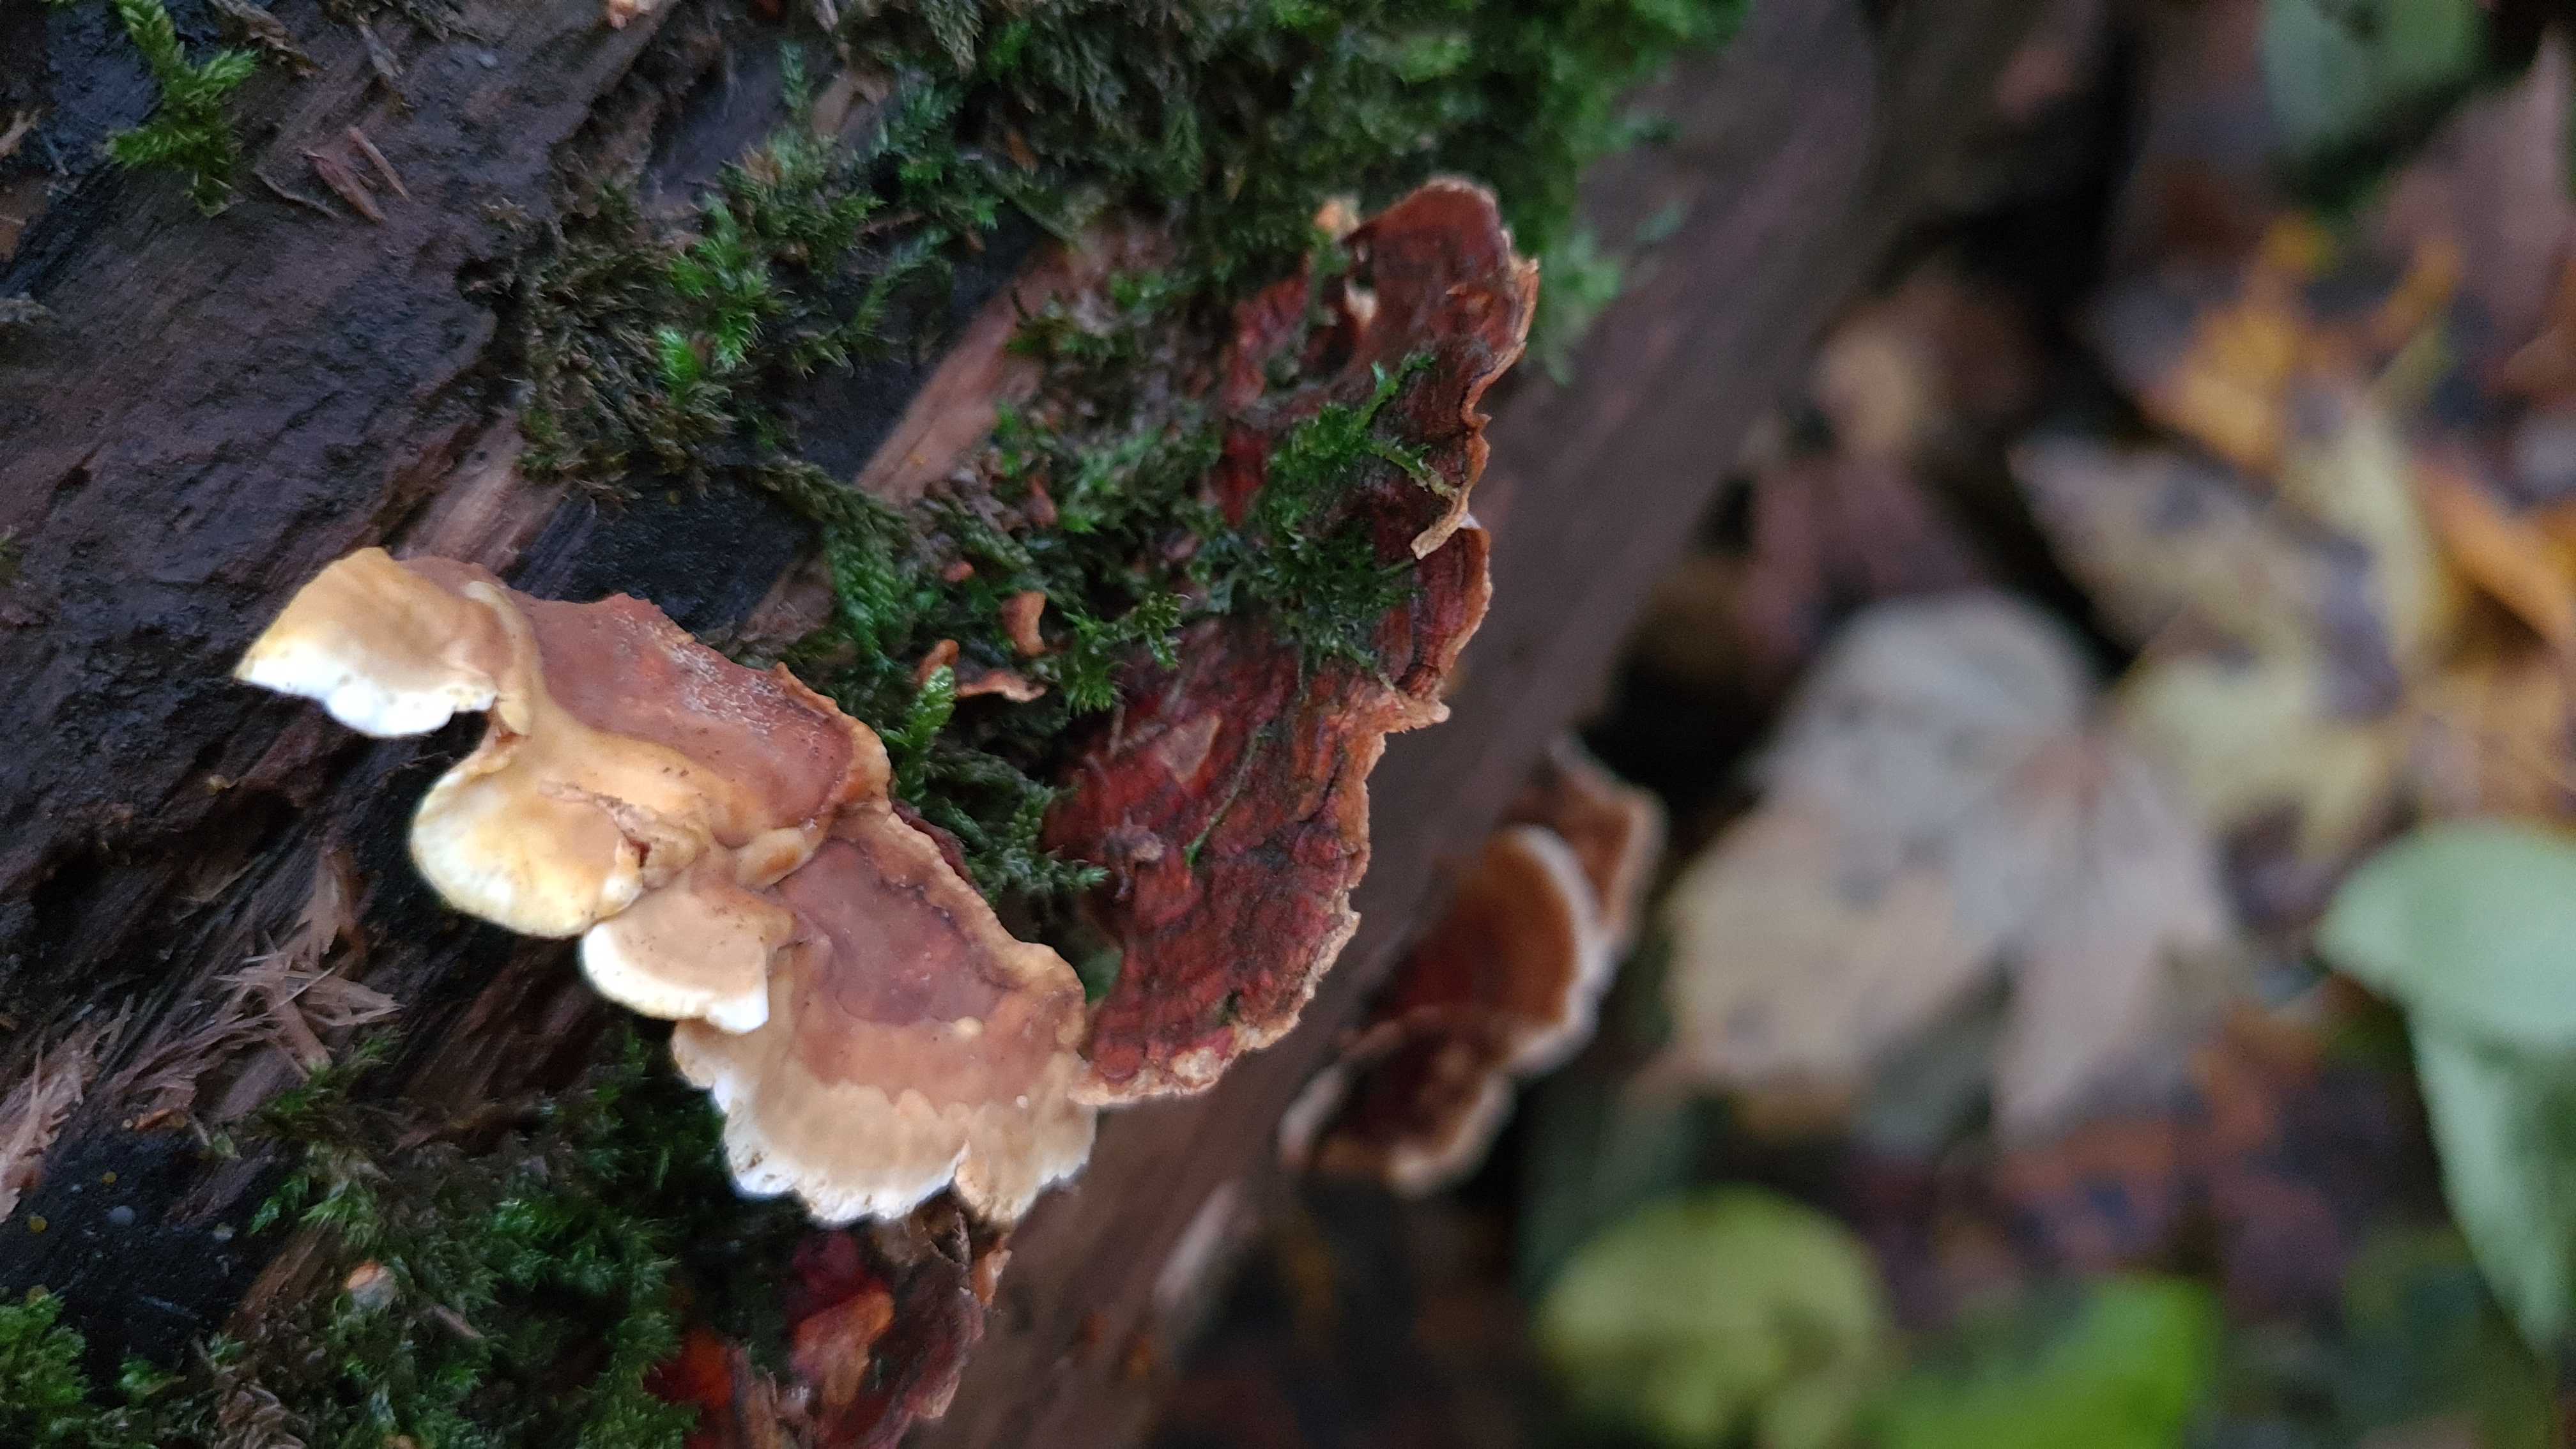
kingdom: Fungi
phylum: Basidiomycota
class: Agaricomycetes
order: Russulales
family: Stereaceae
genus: Stereum
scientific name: Stereum subtomentosum
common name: smuk lædersvamp
